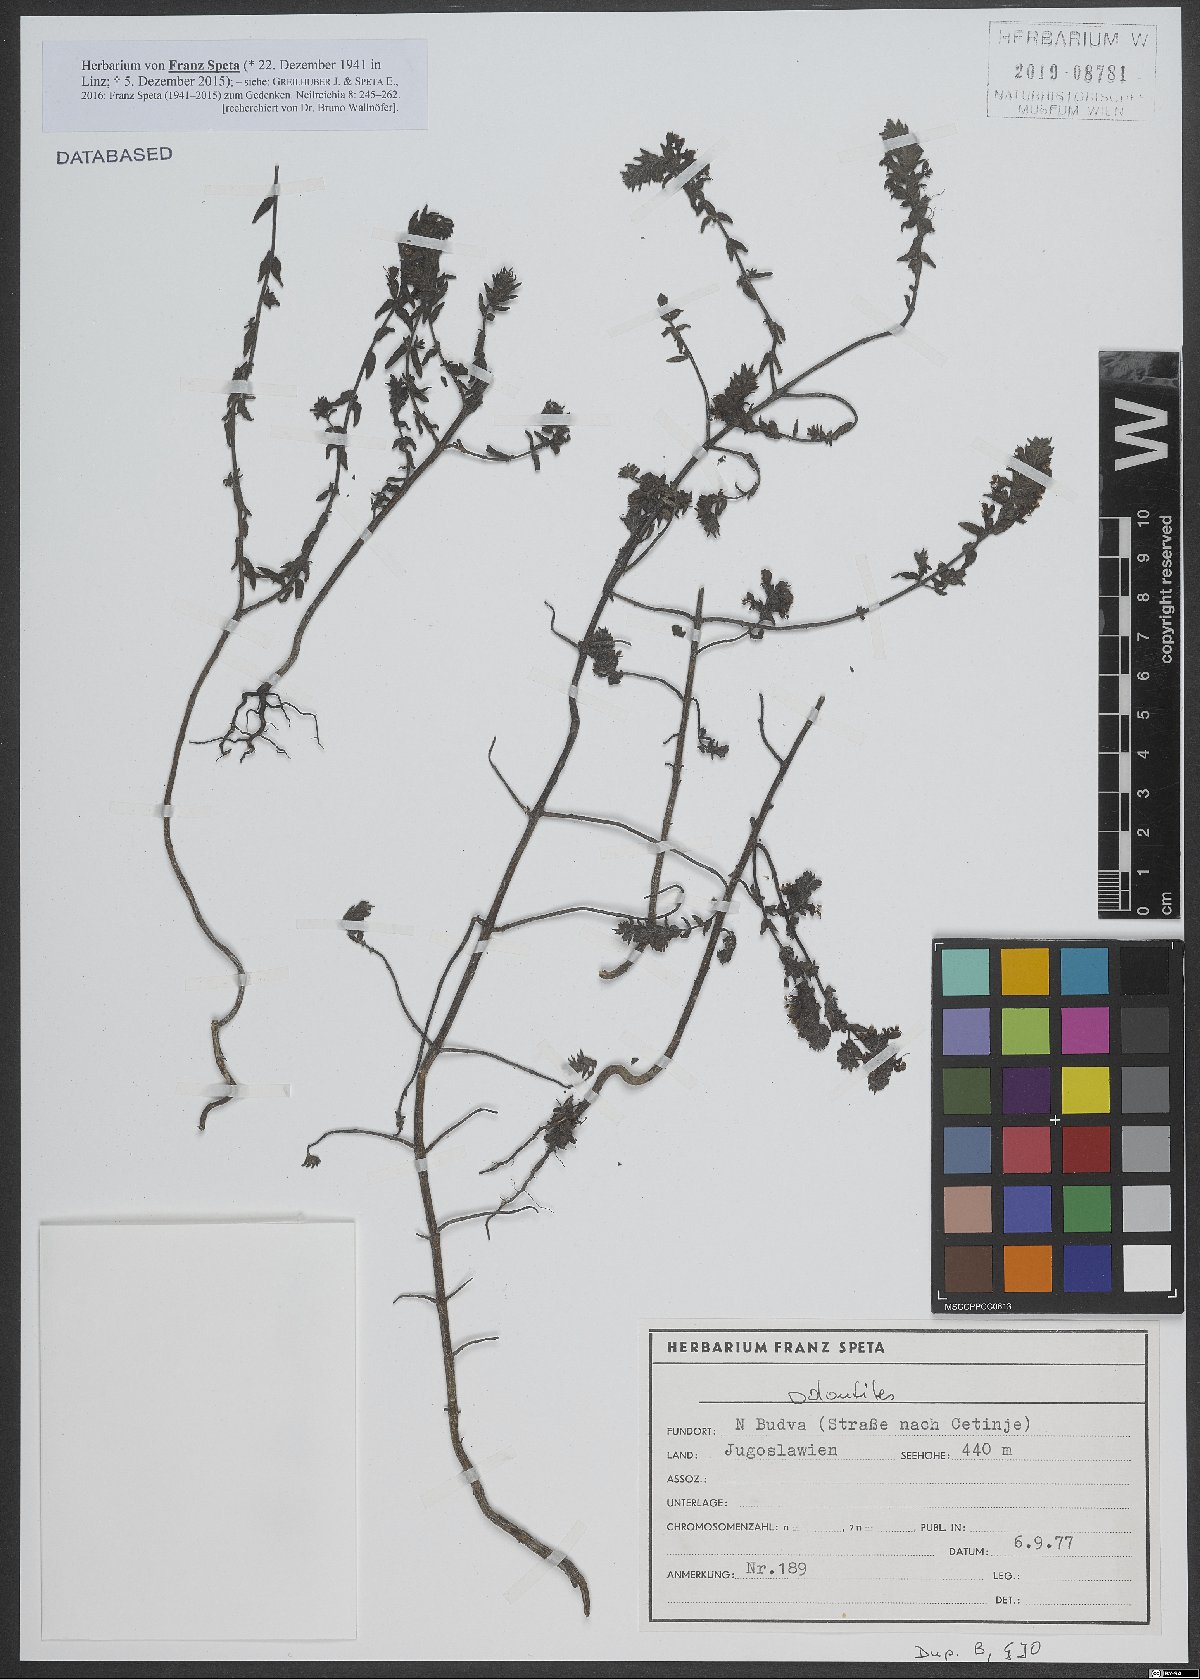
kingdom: Plantae
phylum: Tracheophyta
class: Magnoliopsida
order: Lamiales
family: Orobanchaceae
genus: Odontites
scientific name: Odontites
